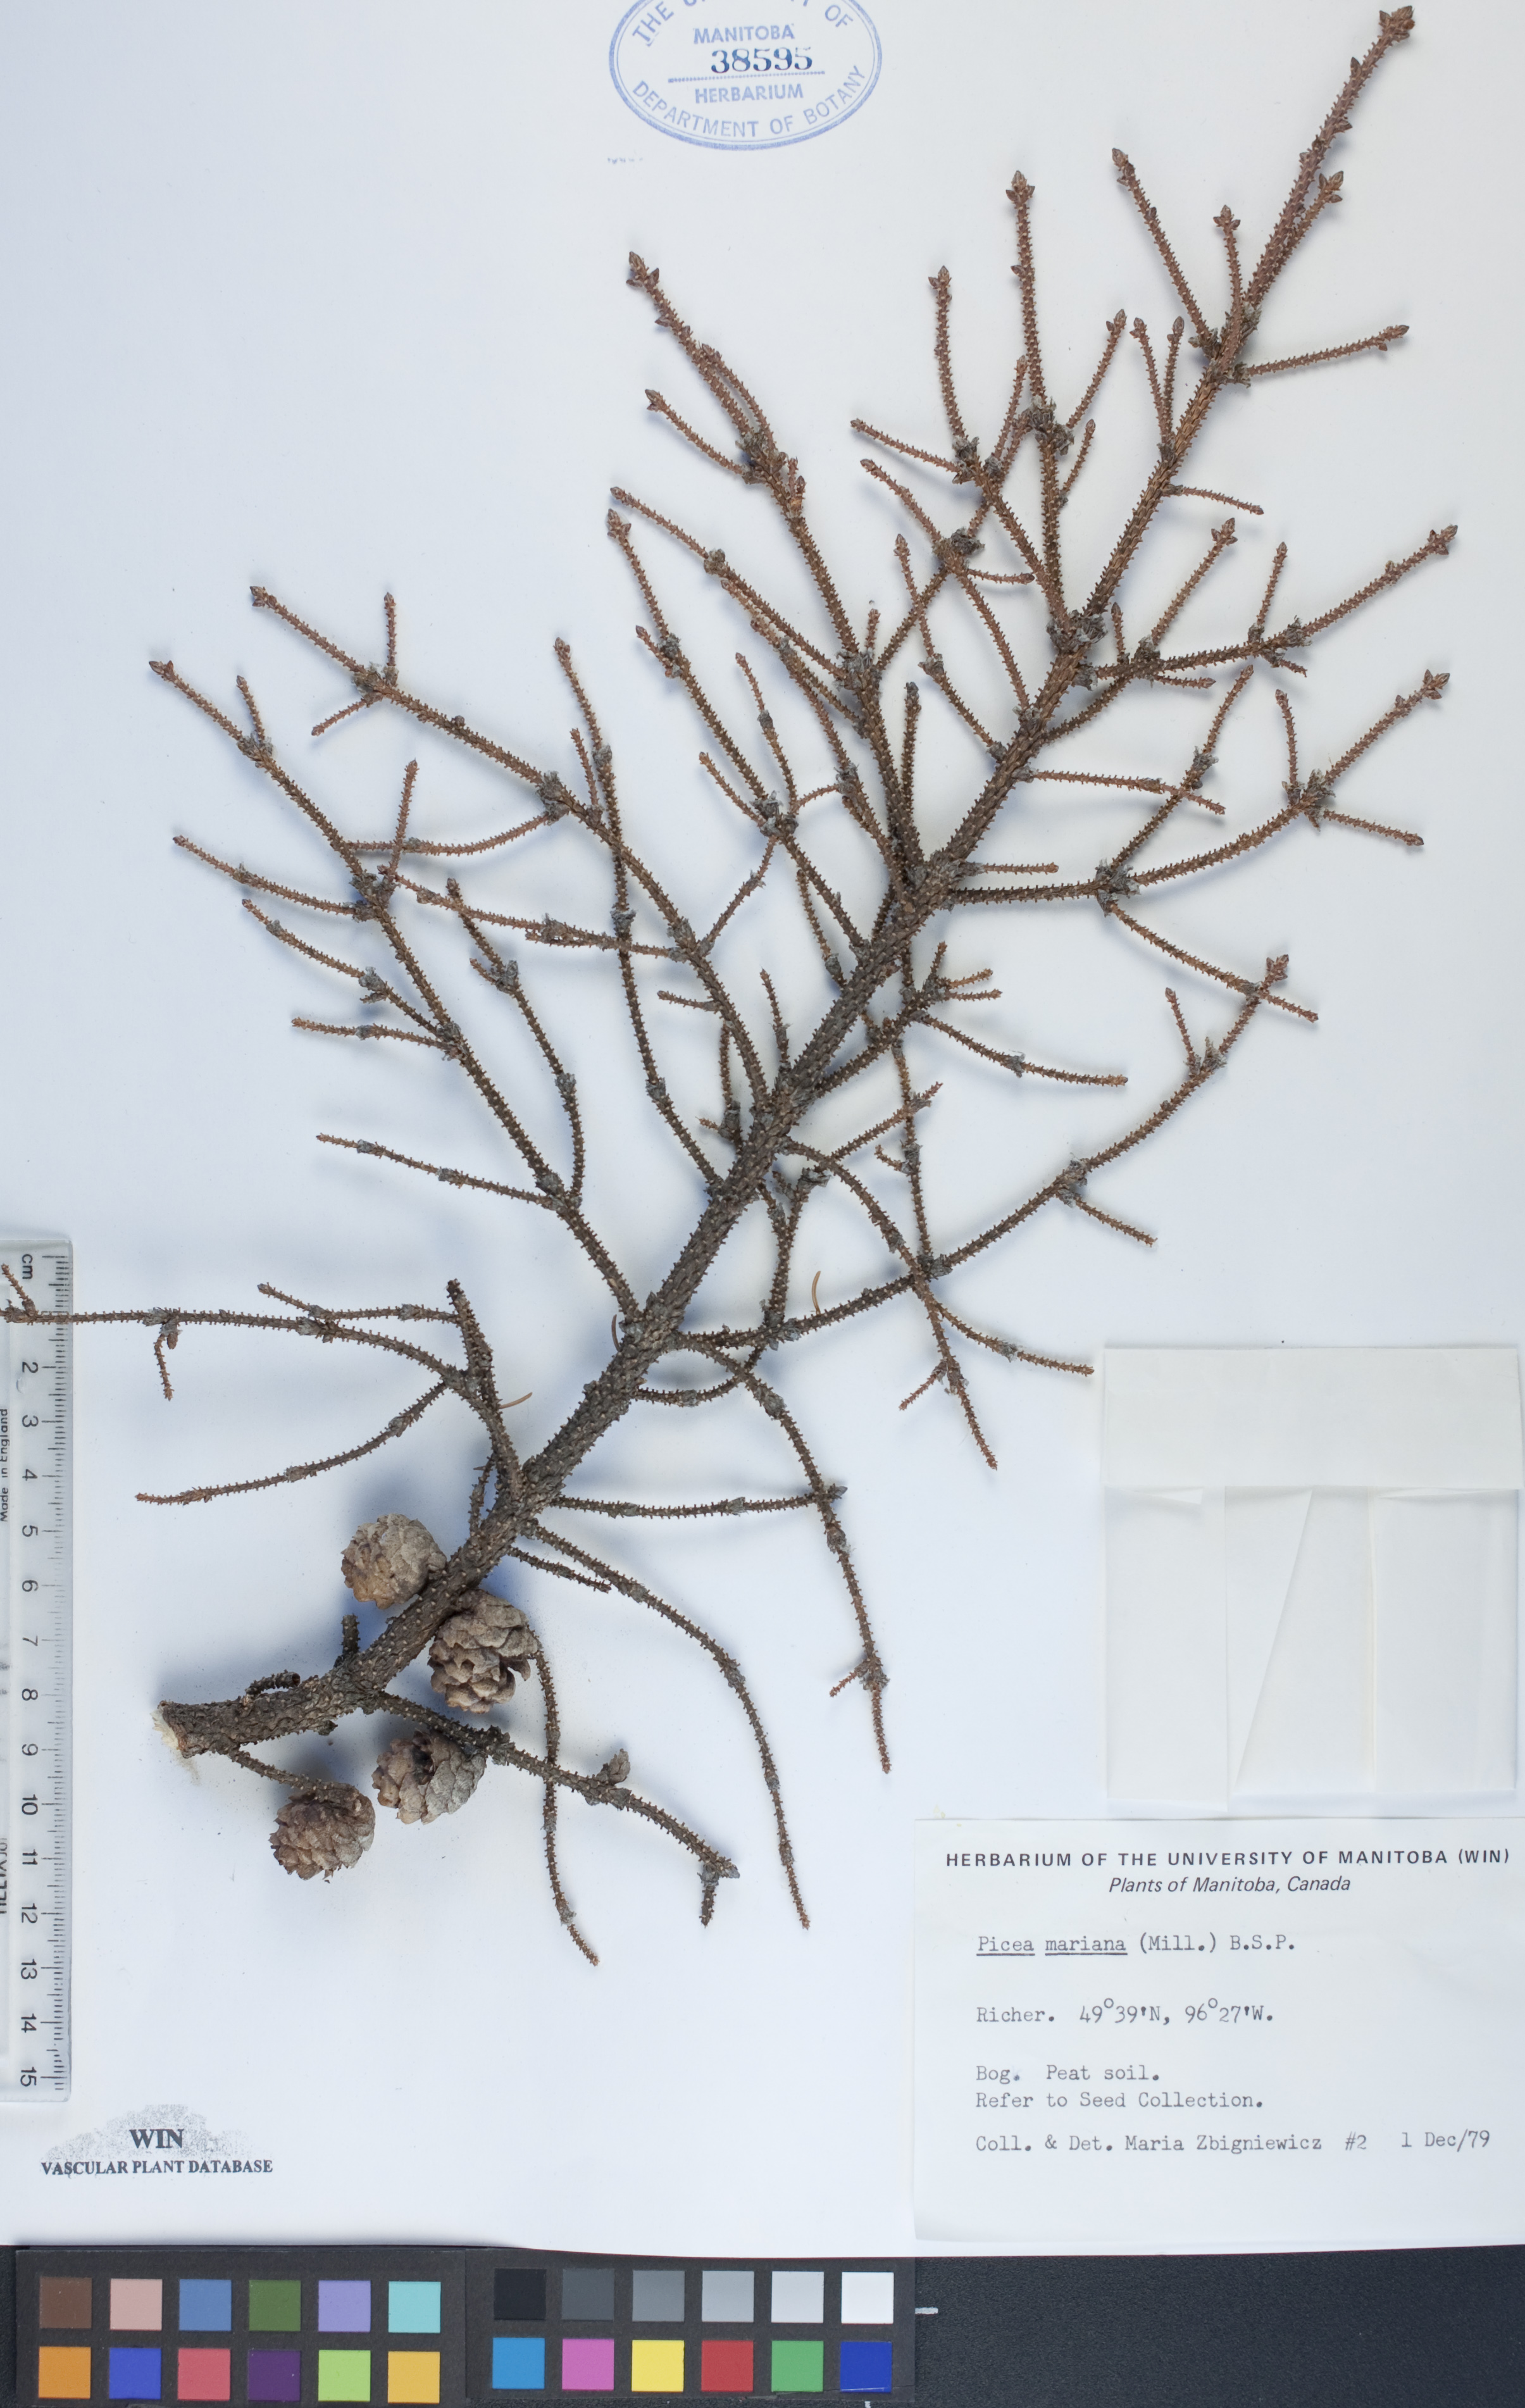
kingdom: Plantae
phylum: Tracheophyta
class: Pinopsida
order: Pinales
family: Pinaceae
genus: Picea
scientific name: Picea mariana
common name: Black spruce
